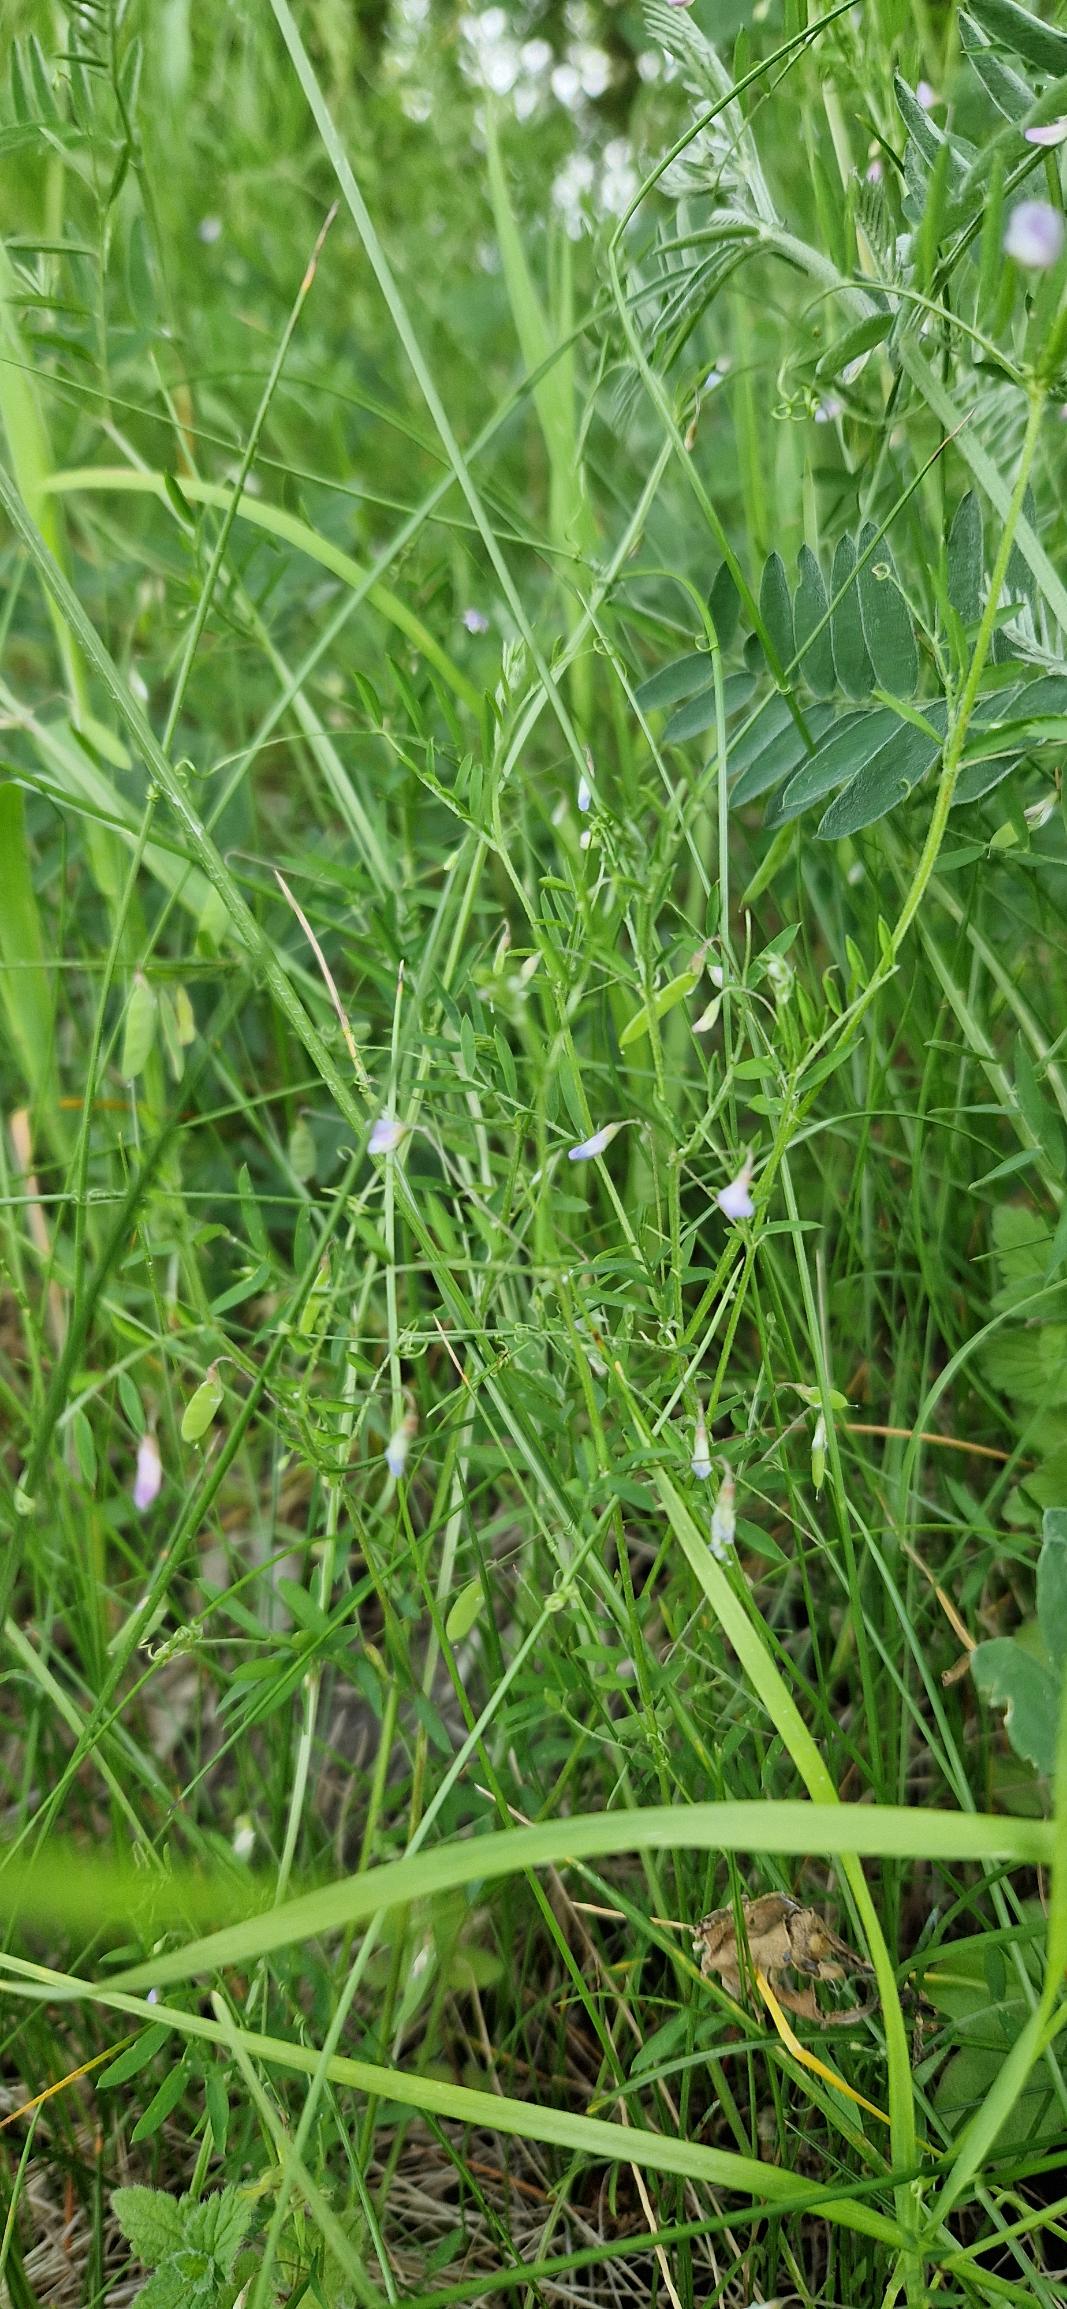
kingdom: Plantae
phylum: Tracheophyta
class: Magnoliopsida
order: Fabales
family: Fabaceae
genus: Vicia
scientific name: Vicia tetrasperma
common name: Tadder-vikke
